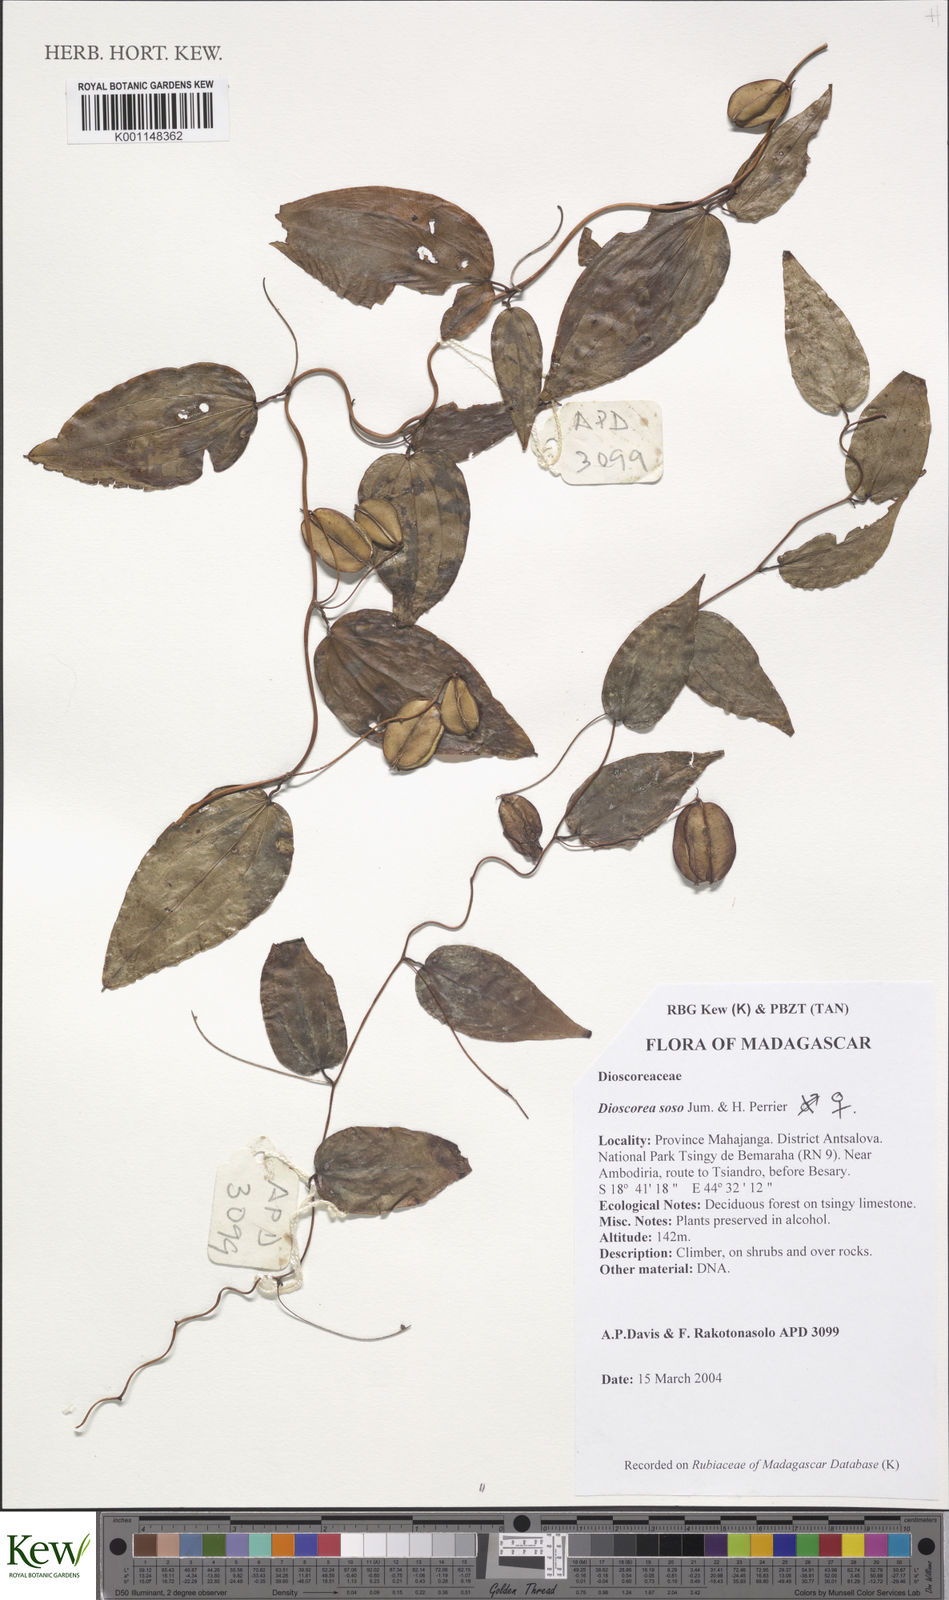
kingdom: Plantae
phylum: Tracheophyta
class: Liliopsida
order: Dioscoreales
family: Dioscoreaceae
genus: Dioscorea
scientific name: Dioscorea soso
